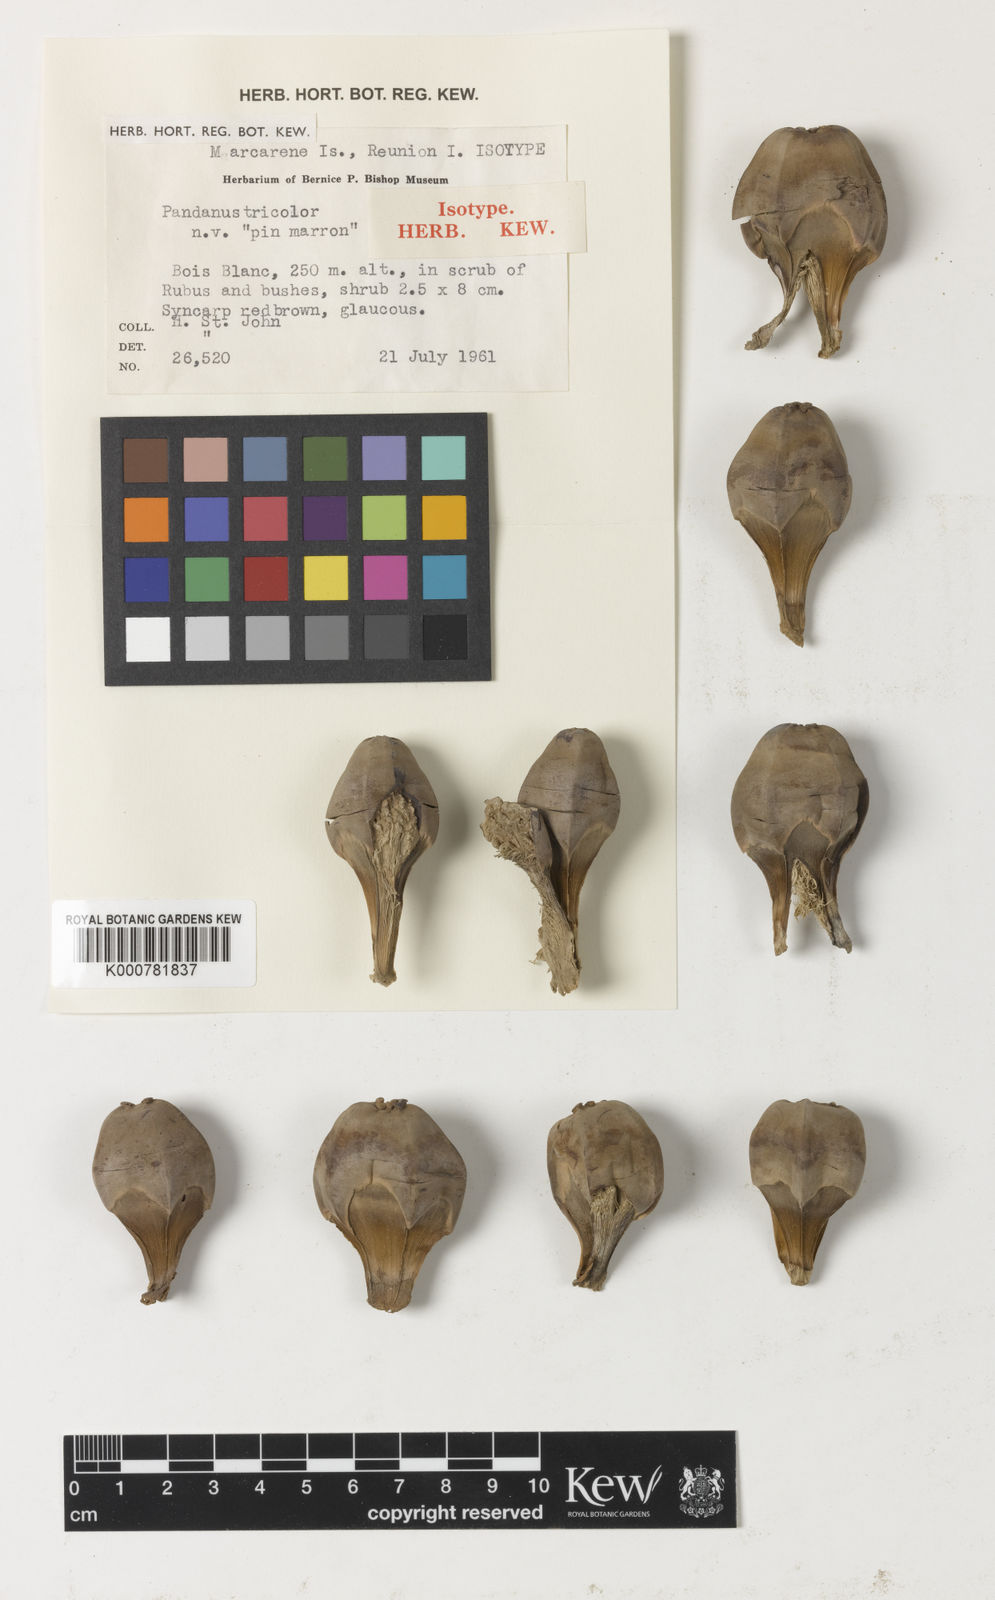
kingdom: Plantae
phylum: Tracheophyta
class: Liliopsida
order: Pandanales
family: Pandanaceae
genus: Pandanus
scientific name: Pandanus
